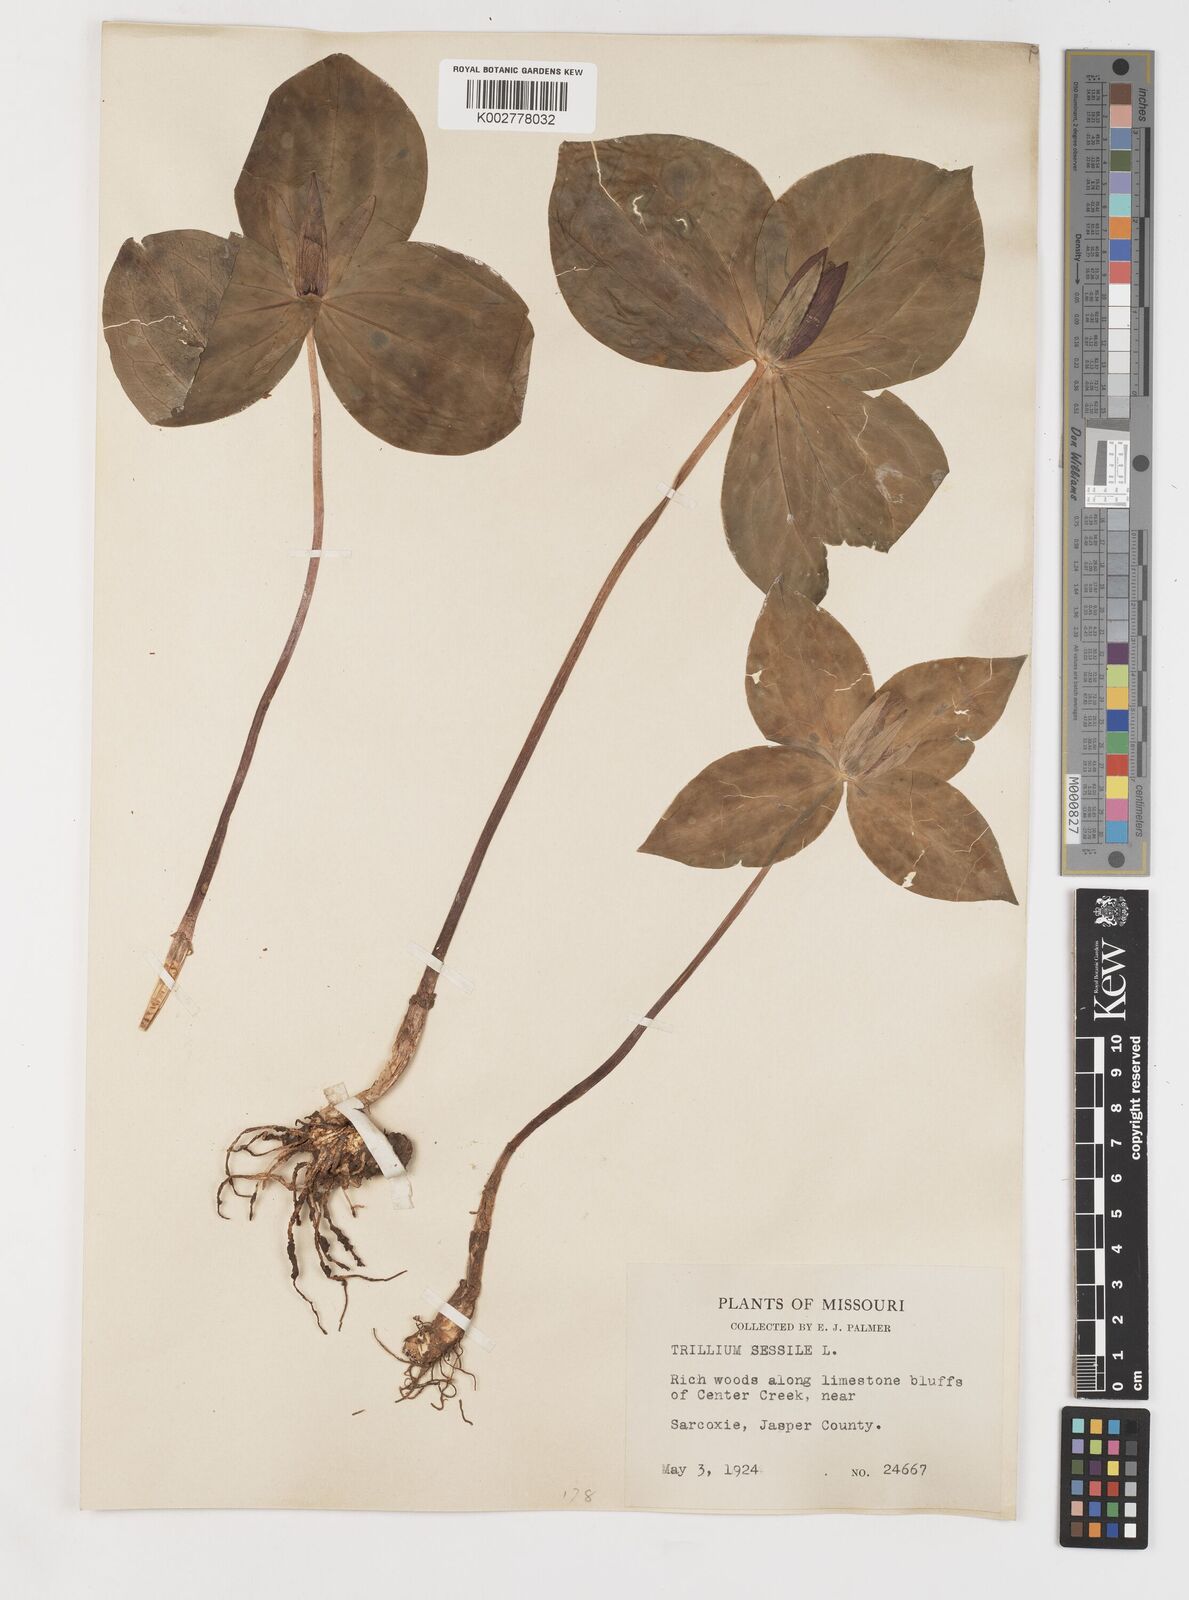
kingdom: Plantae
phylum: Tracheophyta
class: Liliopsida
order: Liliales
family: Melanthiaceae
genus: Trillium
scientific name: Trillium sessile
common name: Sessile trillium
